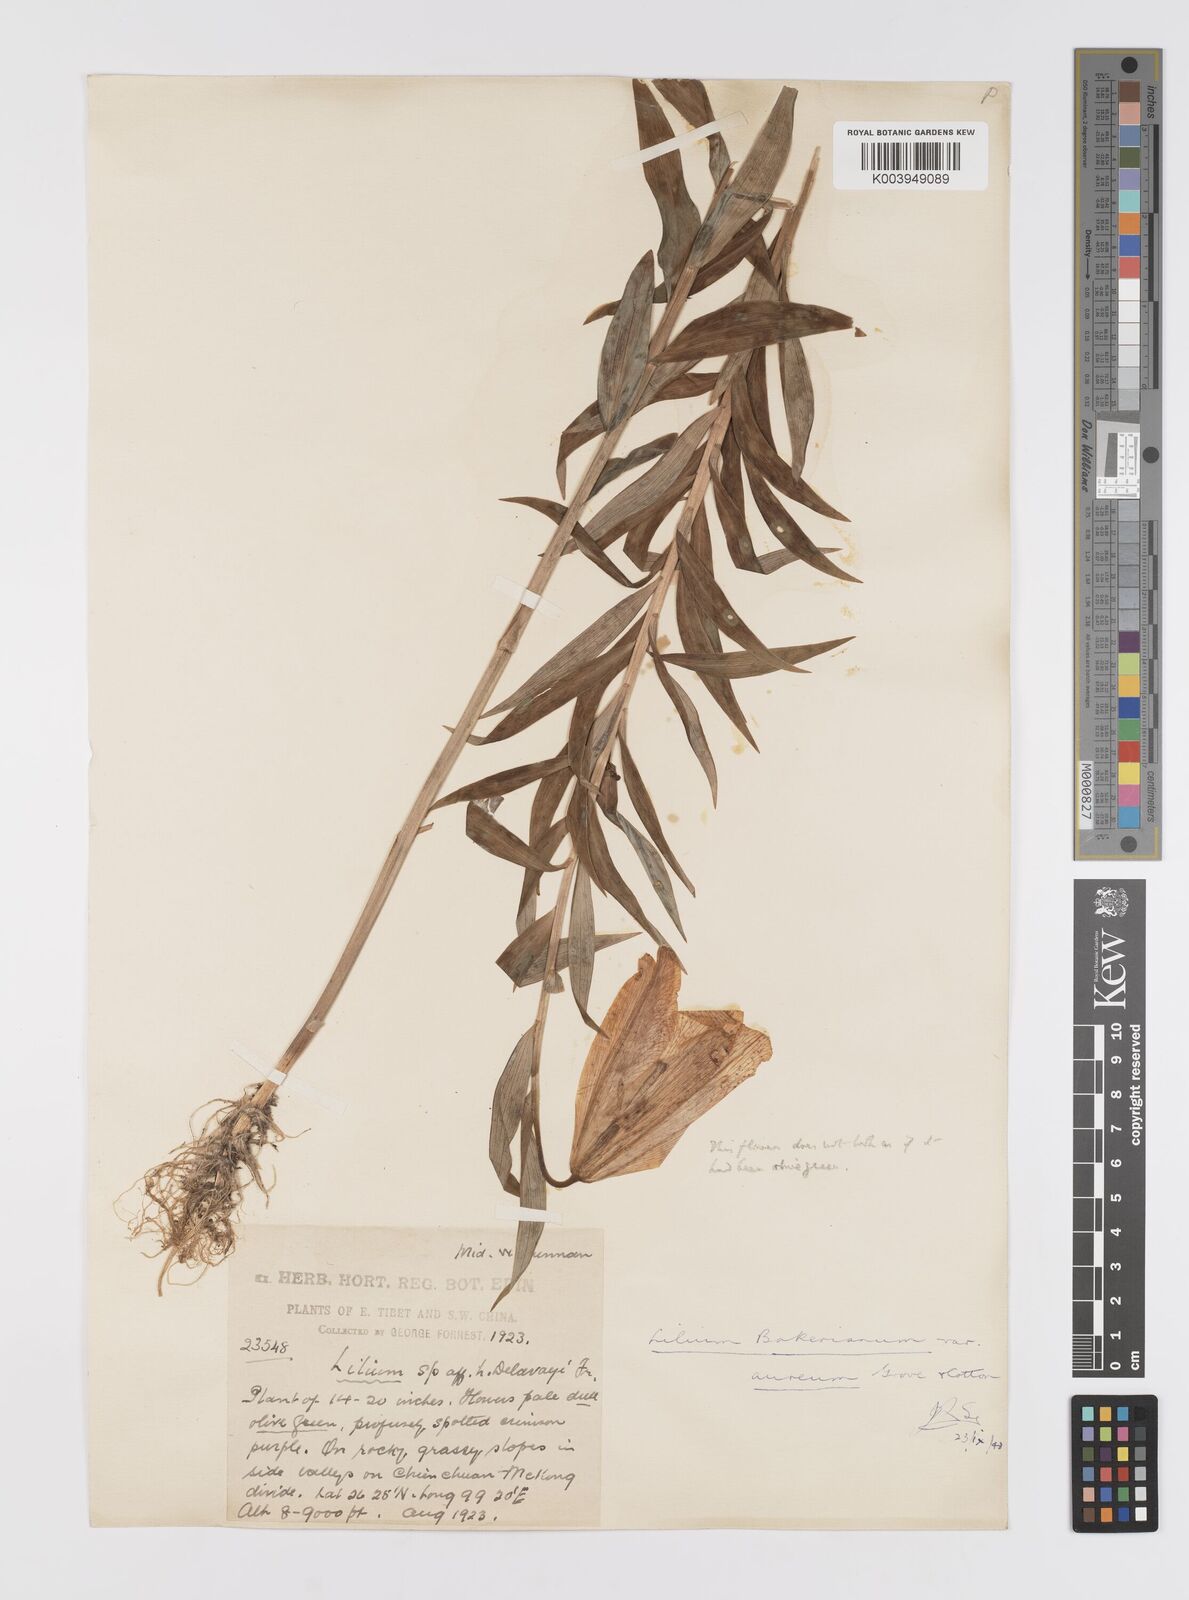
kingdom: Plantae
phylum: Tracheophyta
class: Liliopsida
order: Liliales
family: Liliaceae
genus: Lilium
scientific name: Lilium bakerianum
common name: Baker's lily
